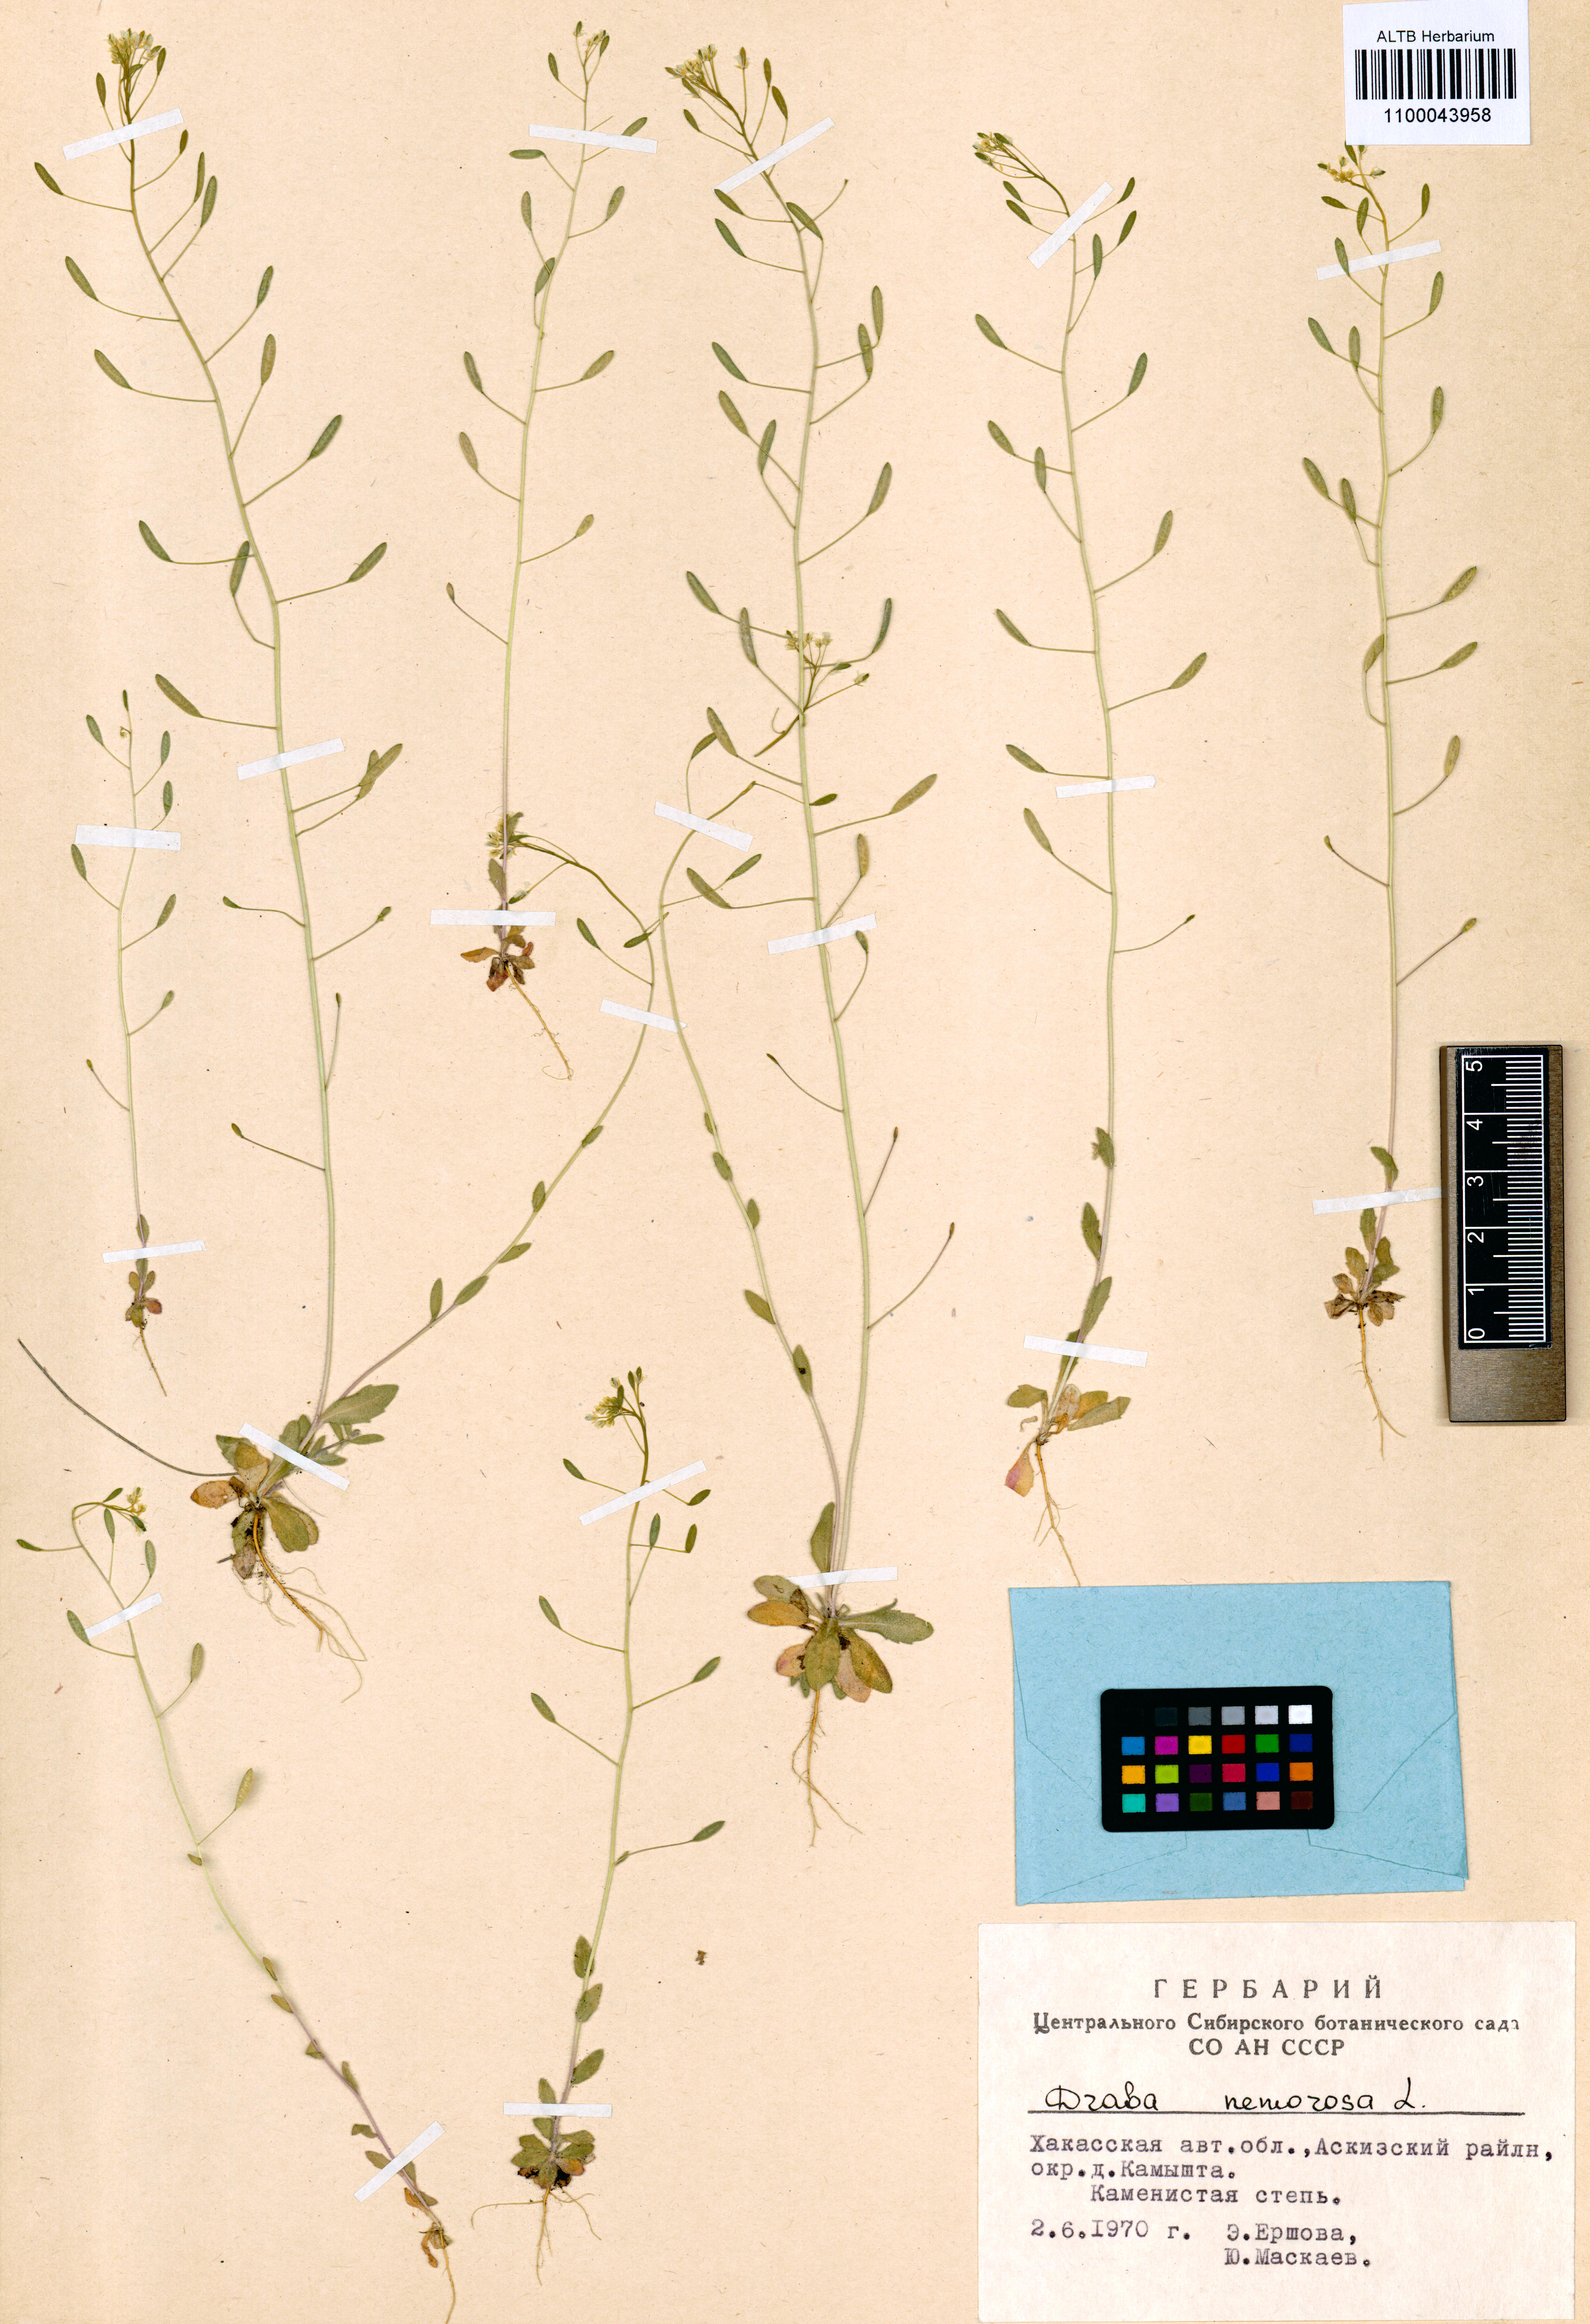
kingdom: Plantae
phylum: Tracheophyta
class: Magnoliopsida
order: Brassicales
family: Brassicaceae
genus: Draba
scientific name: Draba nemorosa
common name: Wood whitlow-grass
